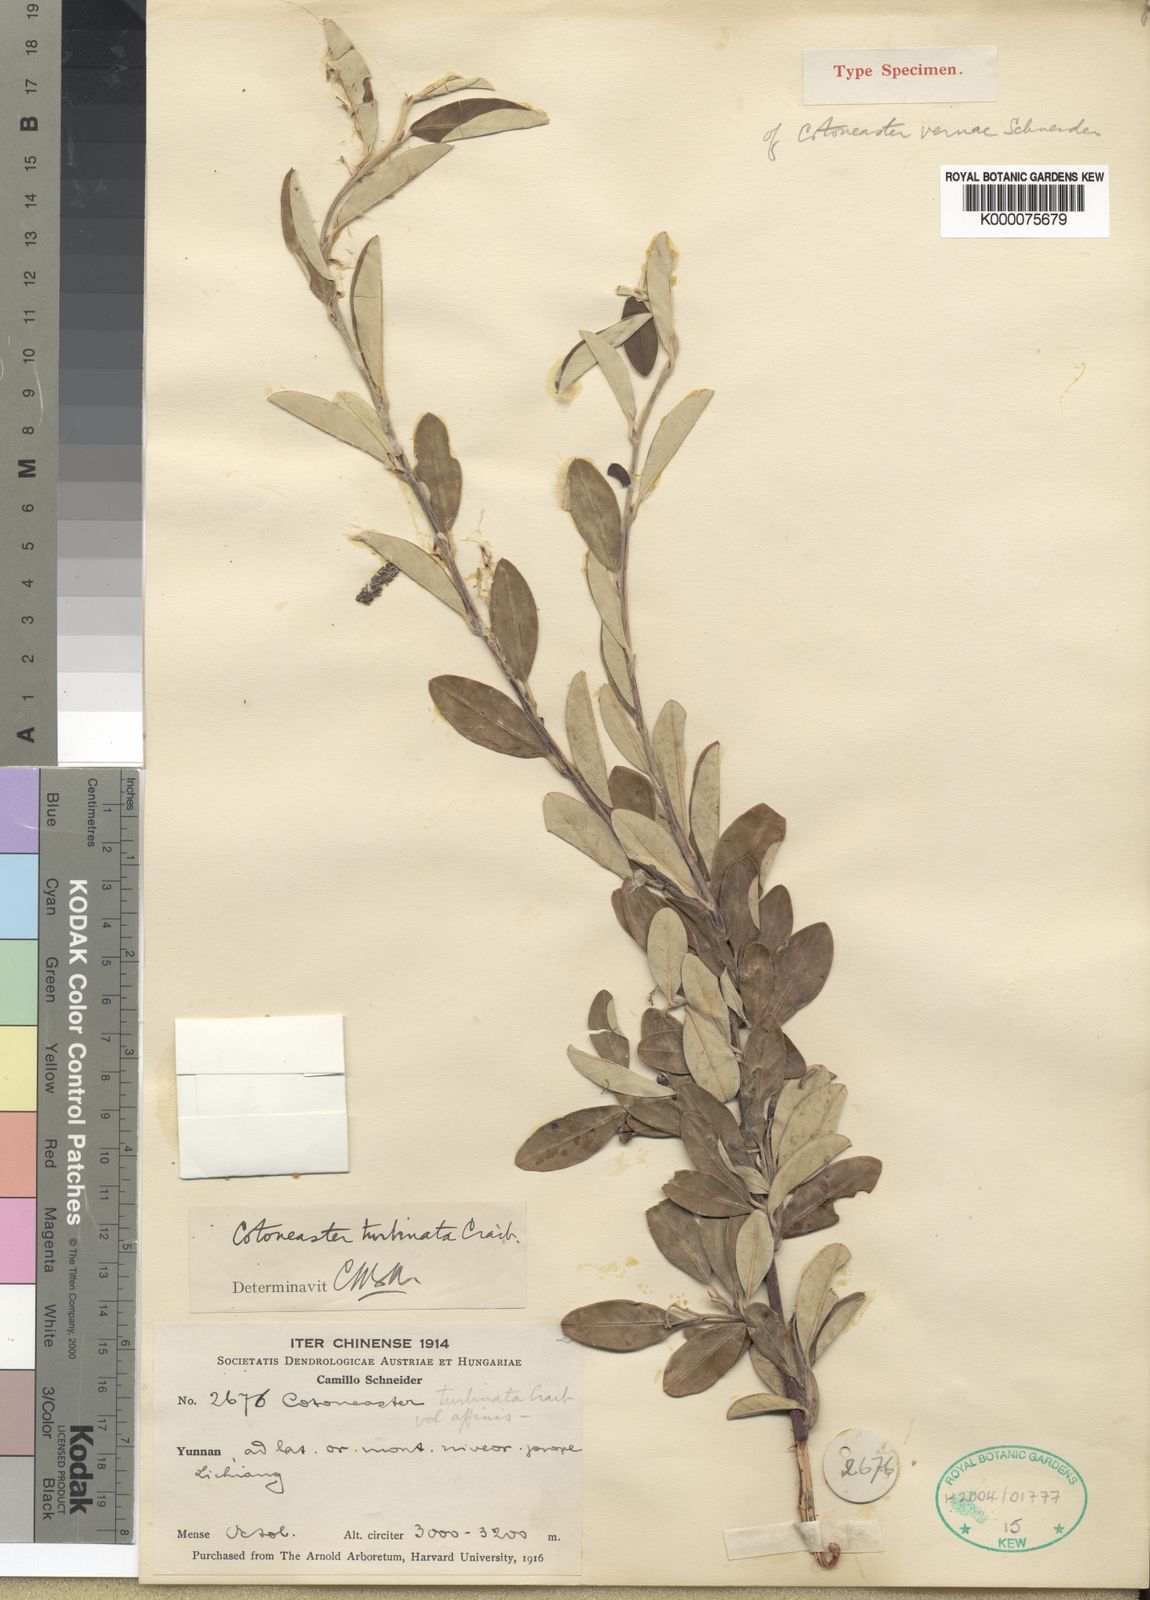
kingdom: Plantae
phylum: Tracheophyta
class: Magnoliopsida
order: Rosales
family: Rosaceae
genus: Cotoneaster
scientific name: Cotoneaster turbinatus
